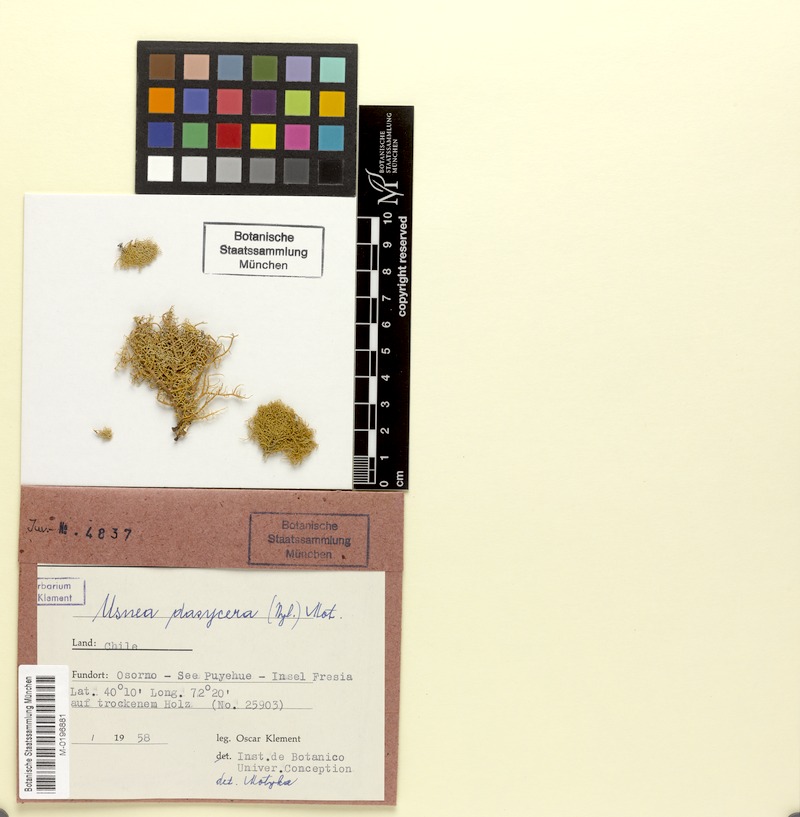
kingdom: Fungi
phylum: Ascomycota
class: Lecanoromycetes
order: Lecanorales
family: Parmeliaceae
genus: Usnea
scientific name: Usnea dasycera
